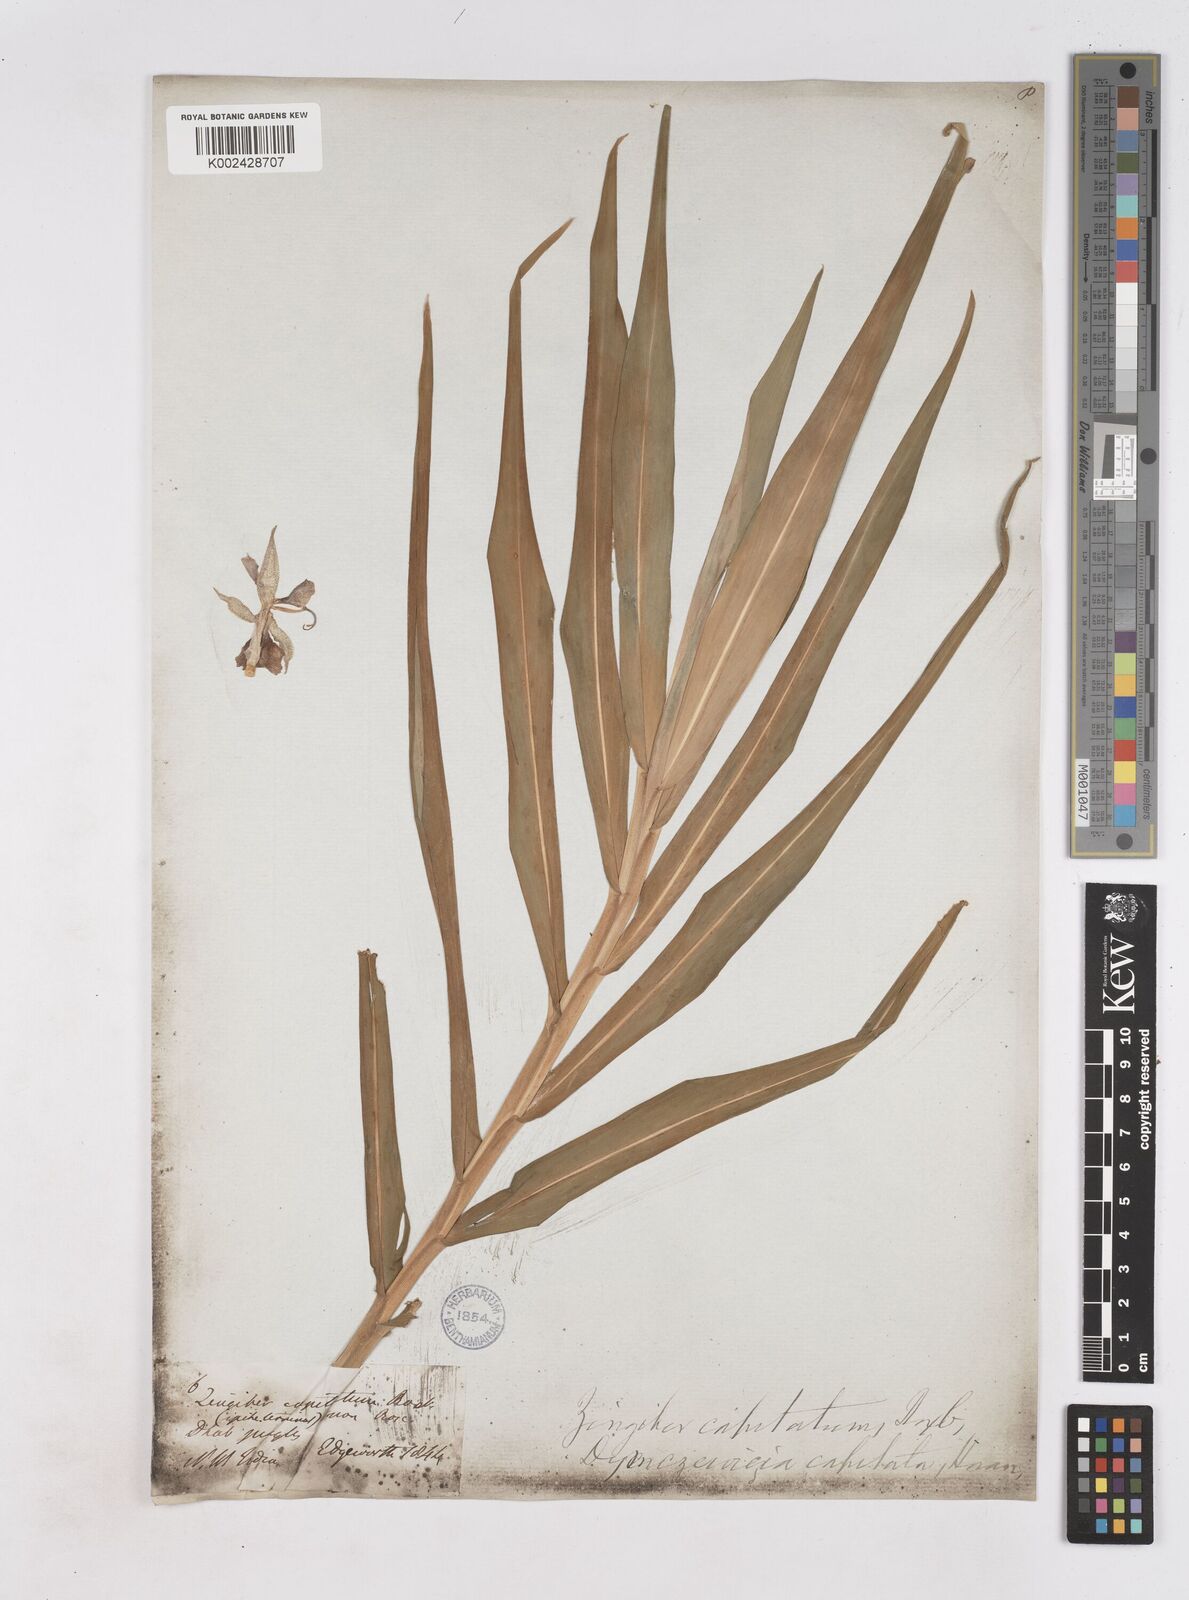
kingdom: Plantae
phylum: Tracheophyta
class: Liliopsida
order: Zingiberales
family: Zingiberaceae
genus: Zingiber
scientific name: Zingiber capitatum
